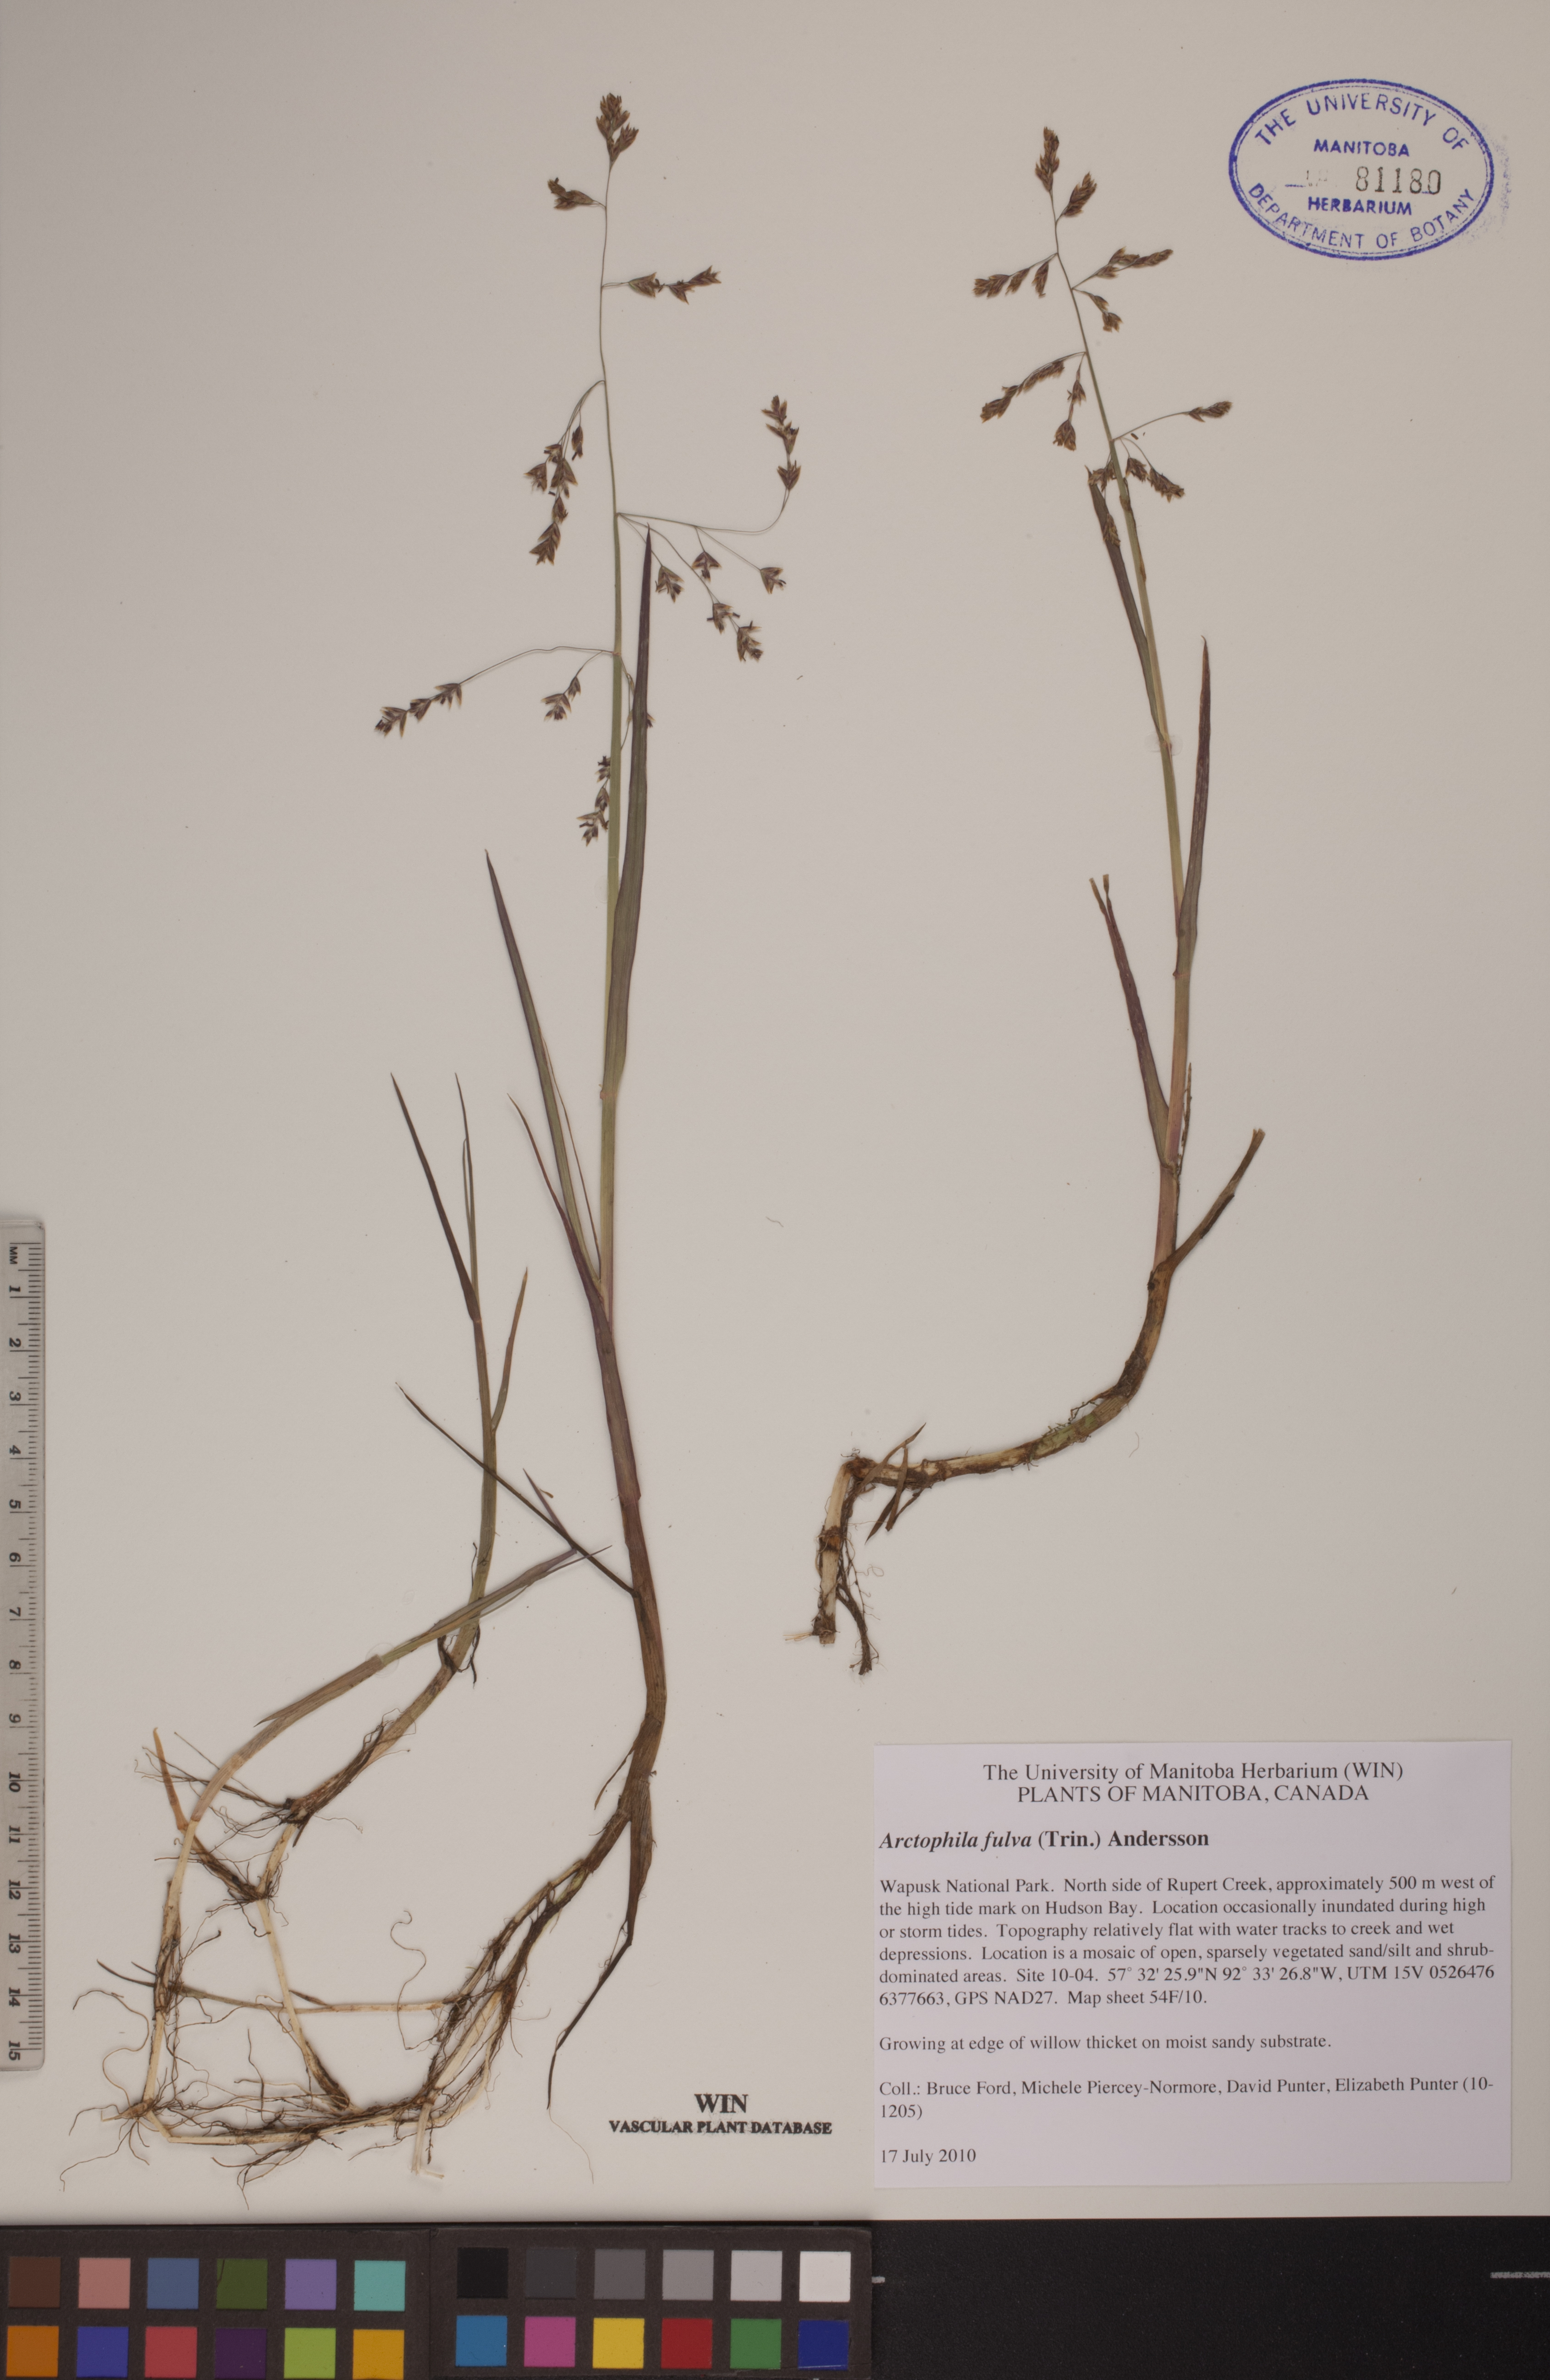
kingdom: Plantae
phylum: Tracheophyta
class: Liliopsida
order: Poales
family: Poaceae
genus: Dupontia
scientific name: Dupontia fulva
